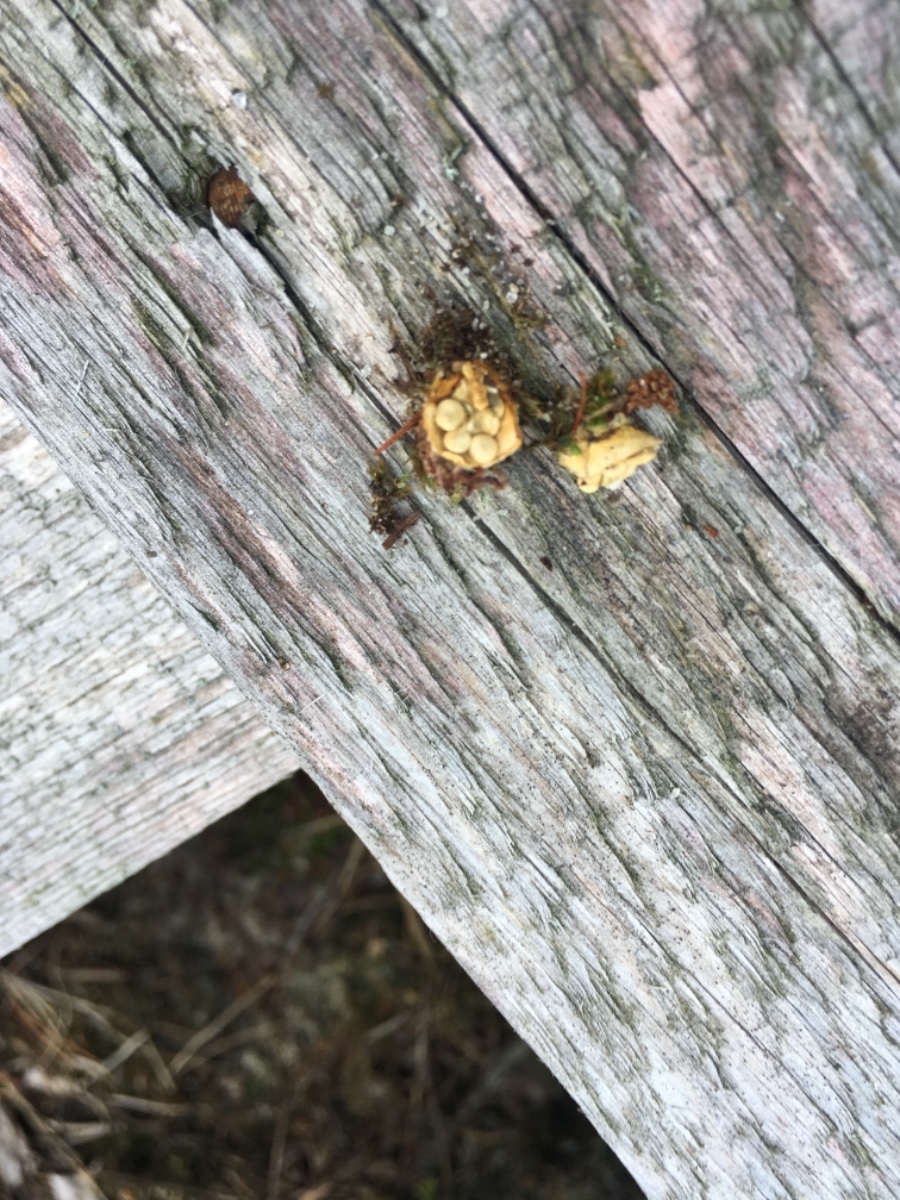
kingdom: Fungi
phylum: Basidiomycota
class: Agaricomycetes
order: Agaricales
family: Nidulariaceae
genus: Crucibulum
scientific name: Crucibulum crucibuliforme
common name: krukkesvamp
